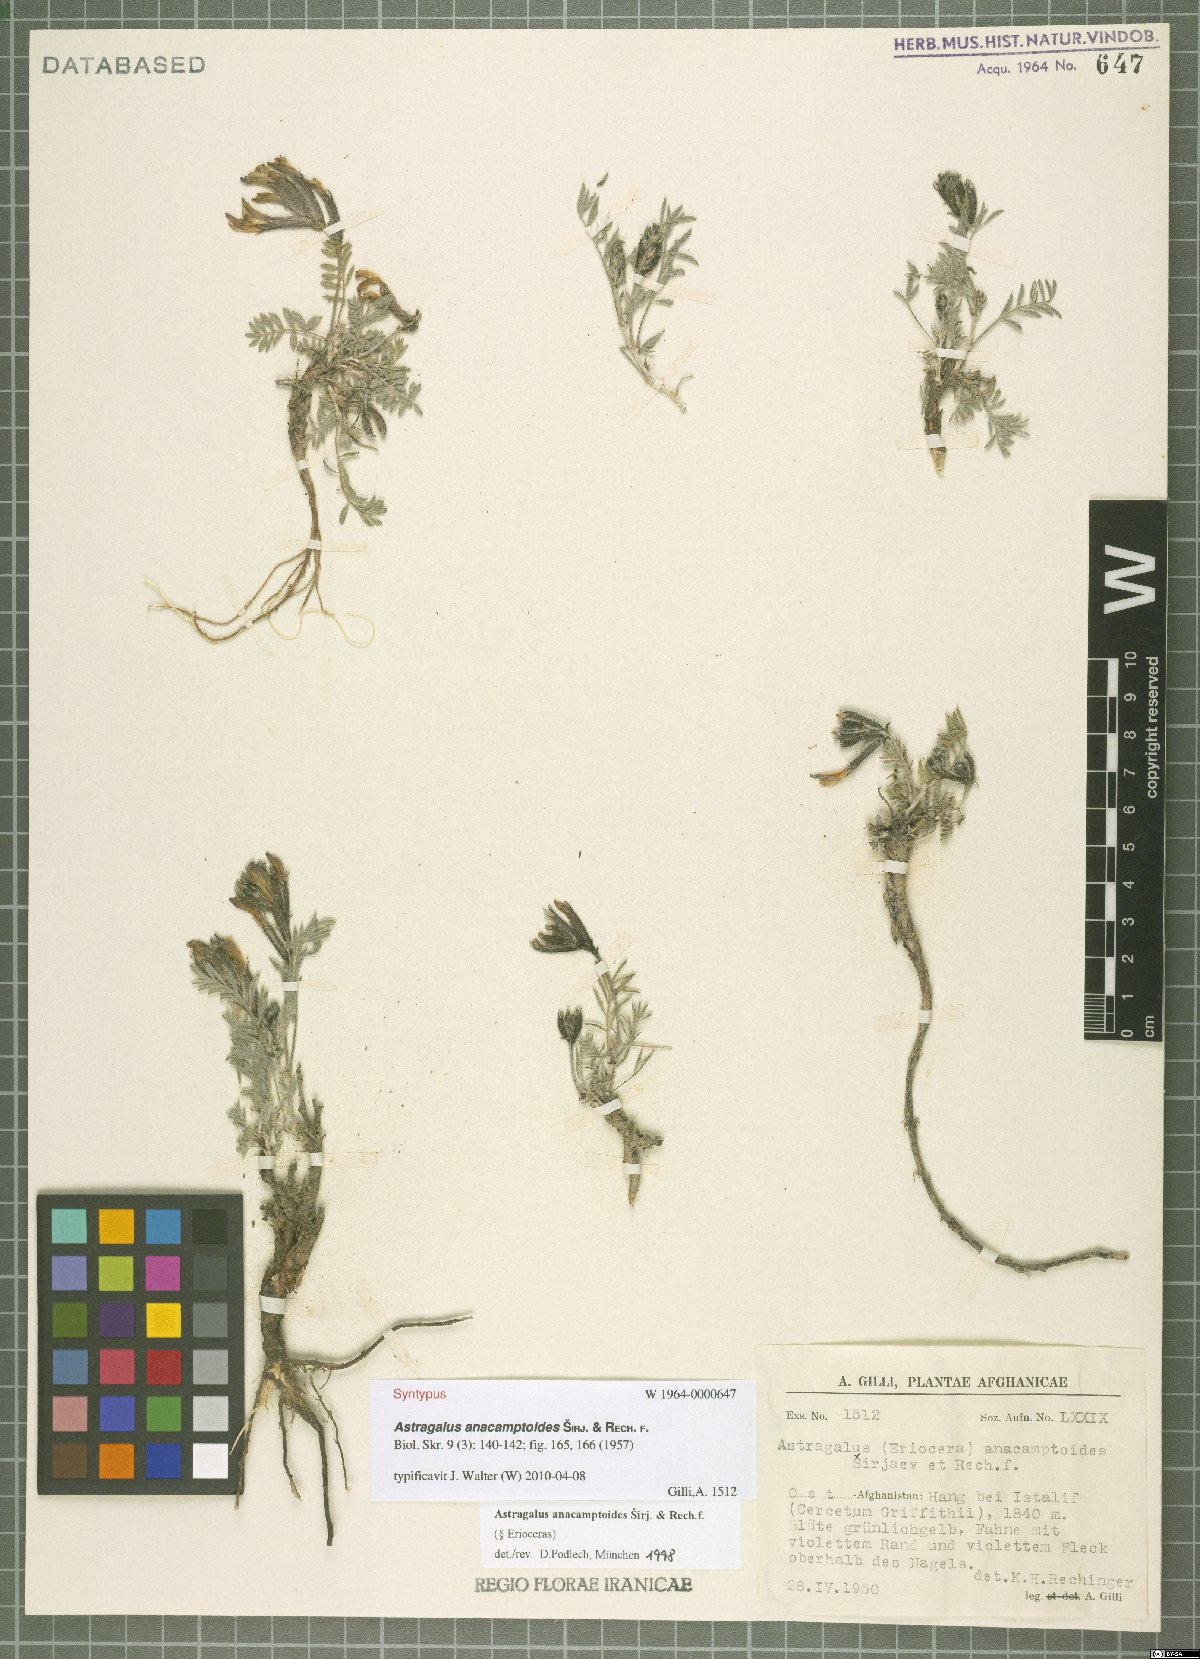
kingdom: Plantae
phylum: Tracheophyta
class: Magnoliopsida
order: Fabales
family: Fabaceae
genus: Astragalus
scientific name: Astragalus anacamptoides
